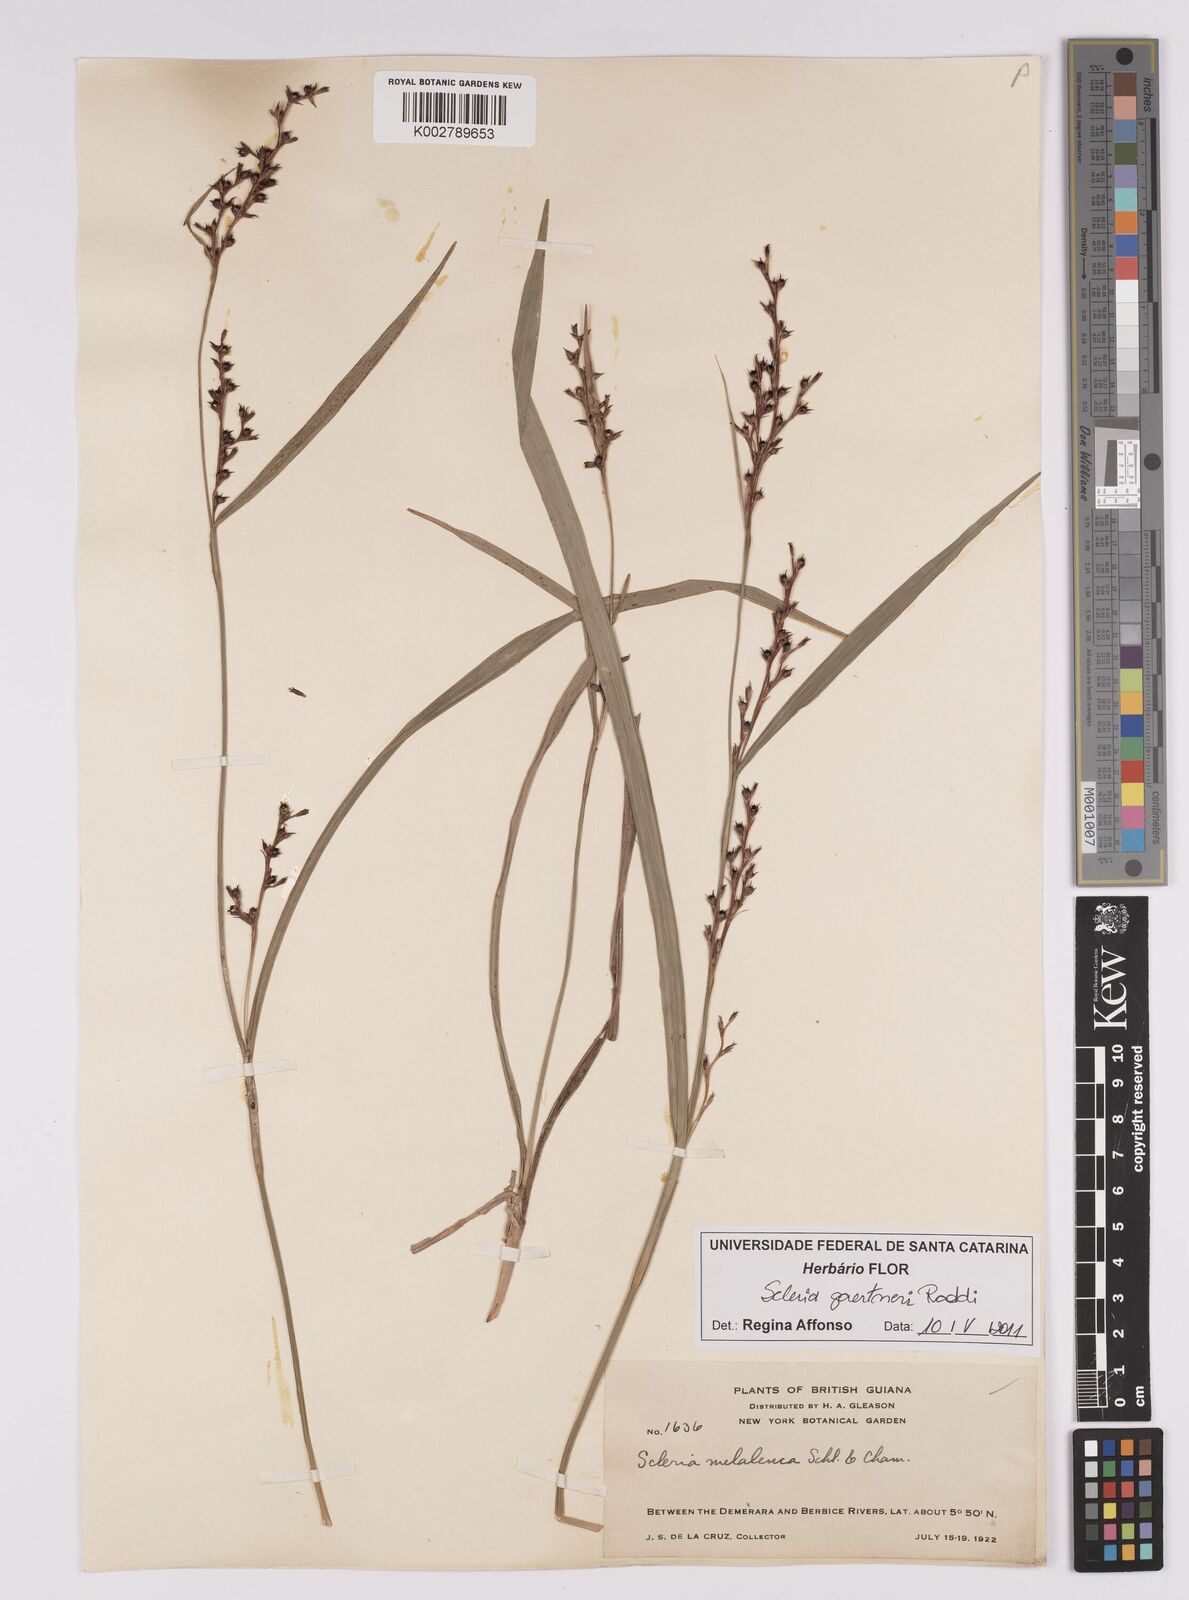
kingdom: Plantae
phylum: Tracheophyta
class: Liliopsida
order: Poales
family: Cyperaceae
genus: Scleria
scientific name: Scleria gaertneri
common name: Cortadera blanca
